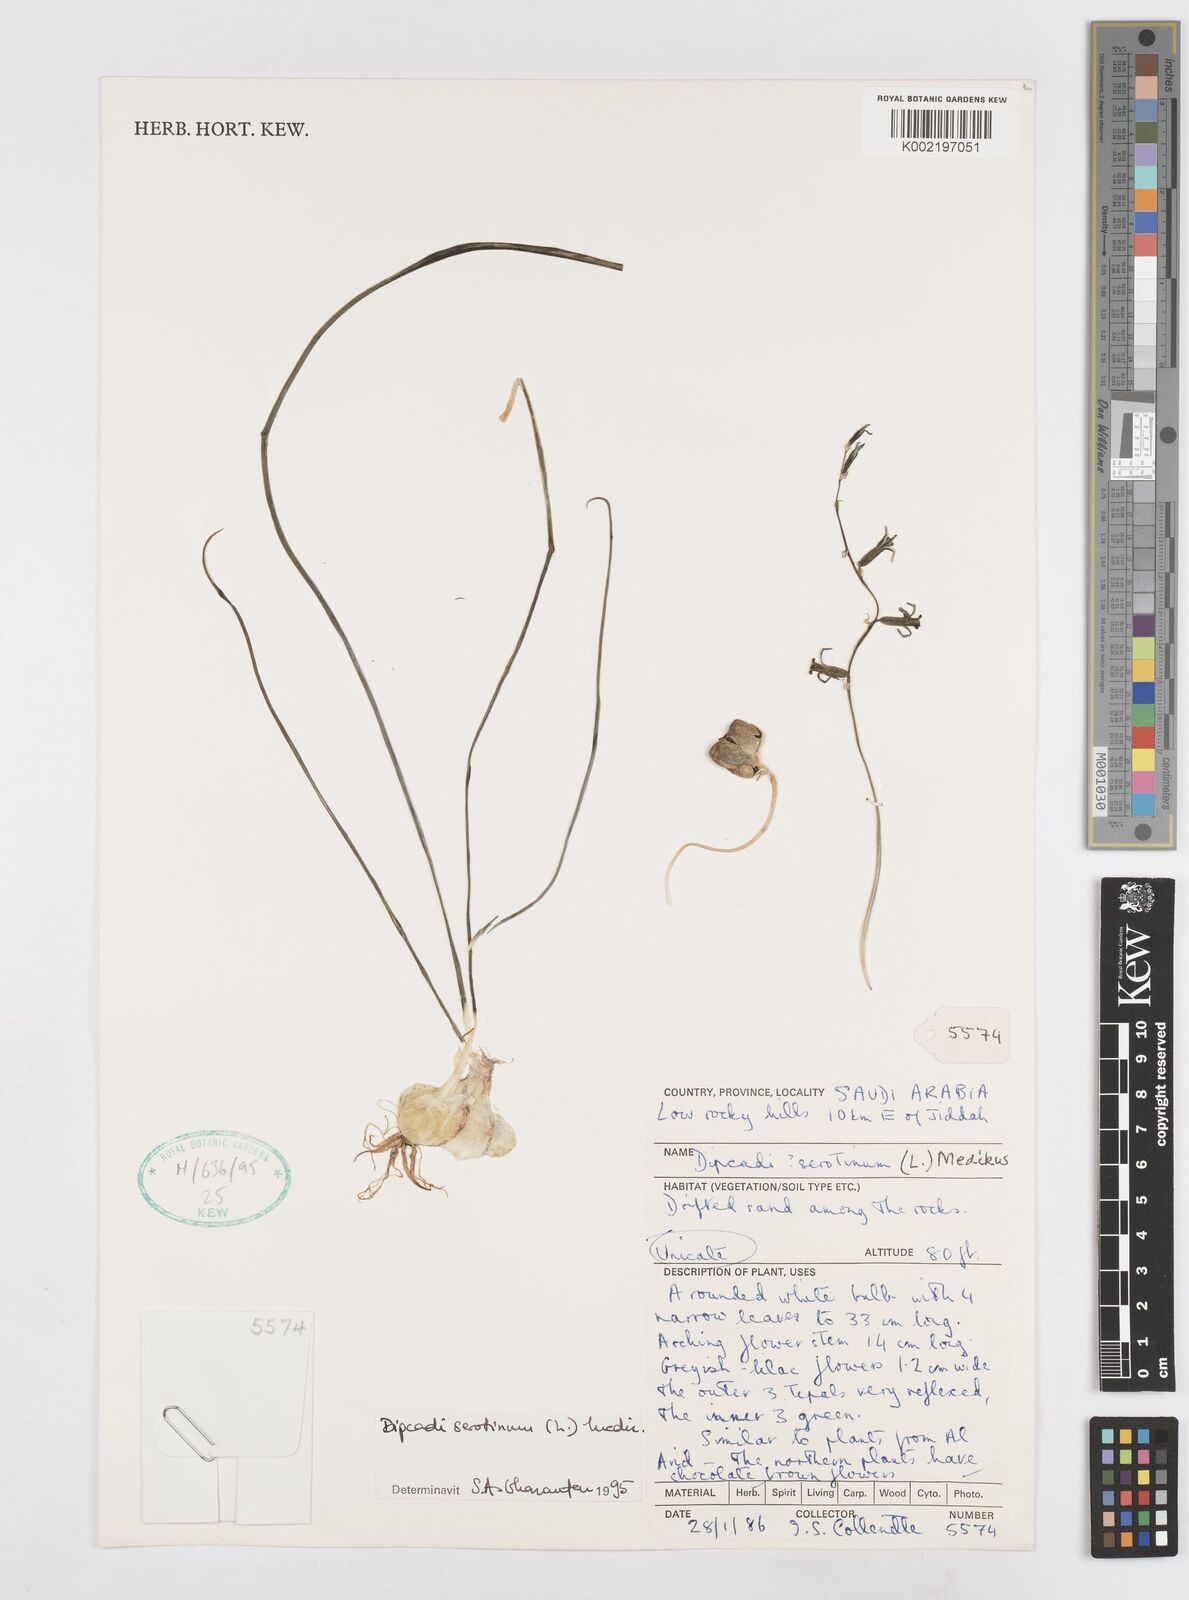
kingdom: Plantae
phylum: Tracheophyta
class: Liliopsida
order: Asparagales
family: Asparagaceae
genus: Dipcadi
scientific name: Dipcadi serotinum
